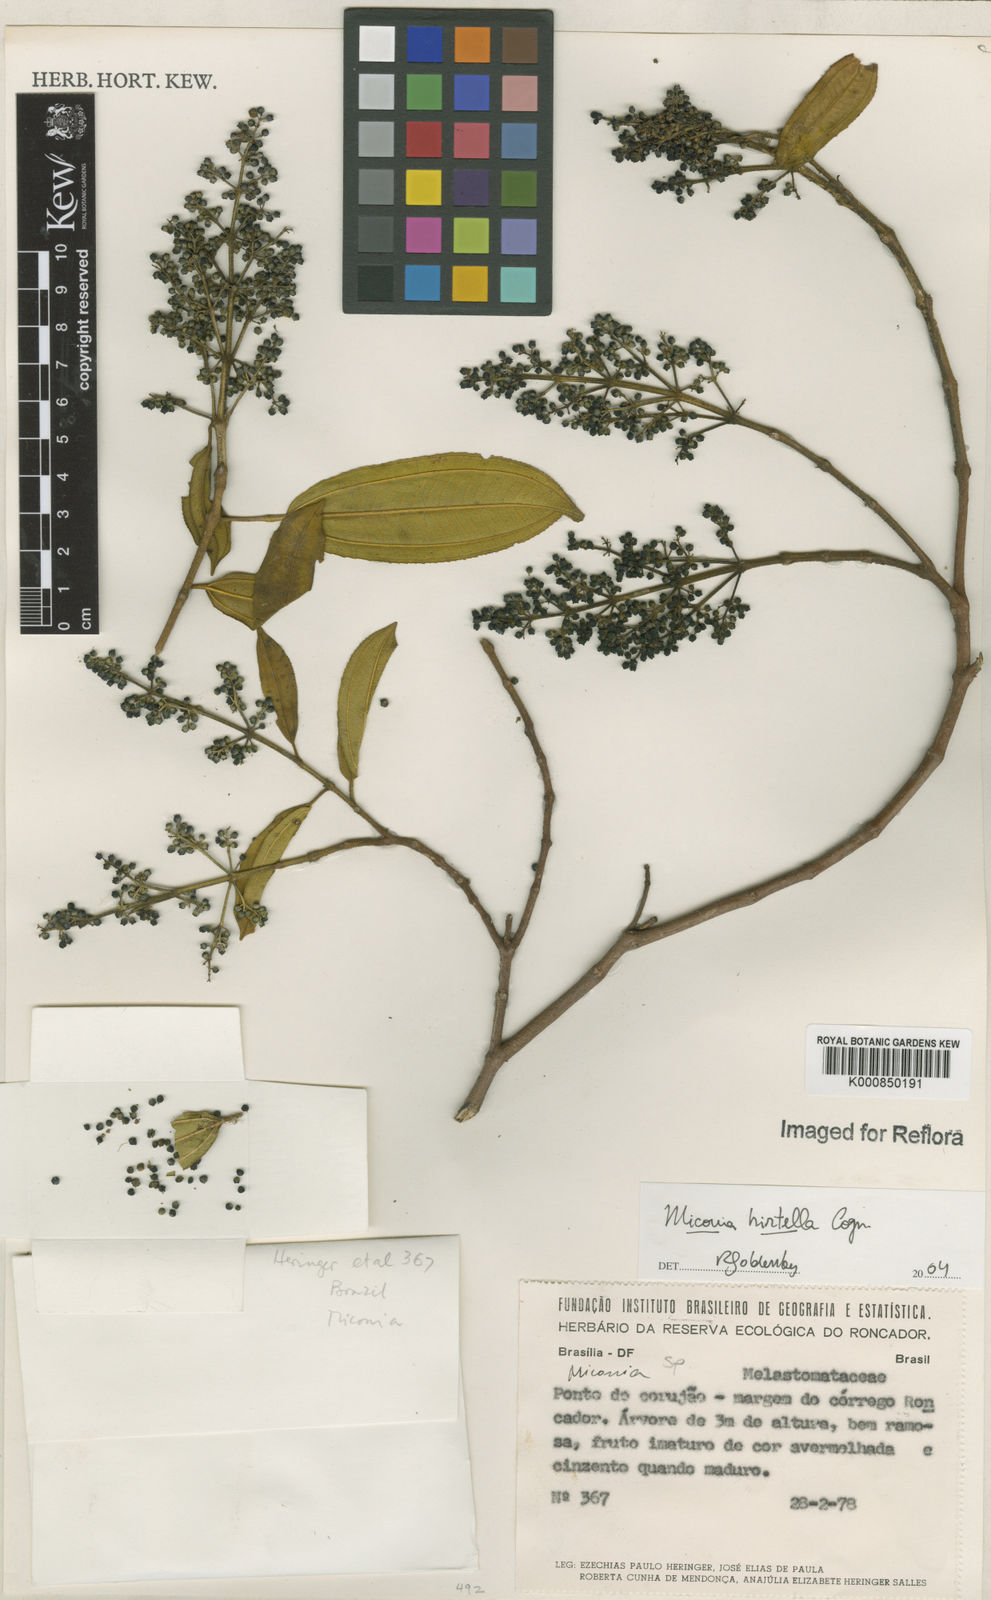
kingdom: Plantae
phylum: Tracheophyta
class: Magnoliopsida
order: Myrtales
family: Melastomataceae
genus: Miconia
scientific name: Miconia hirta
